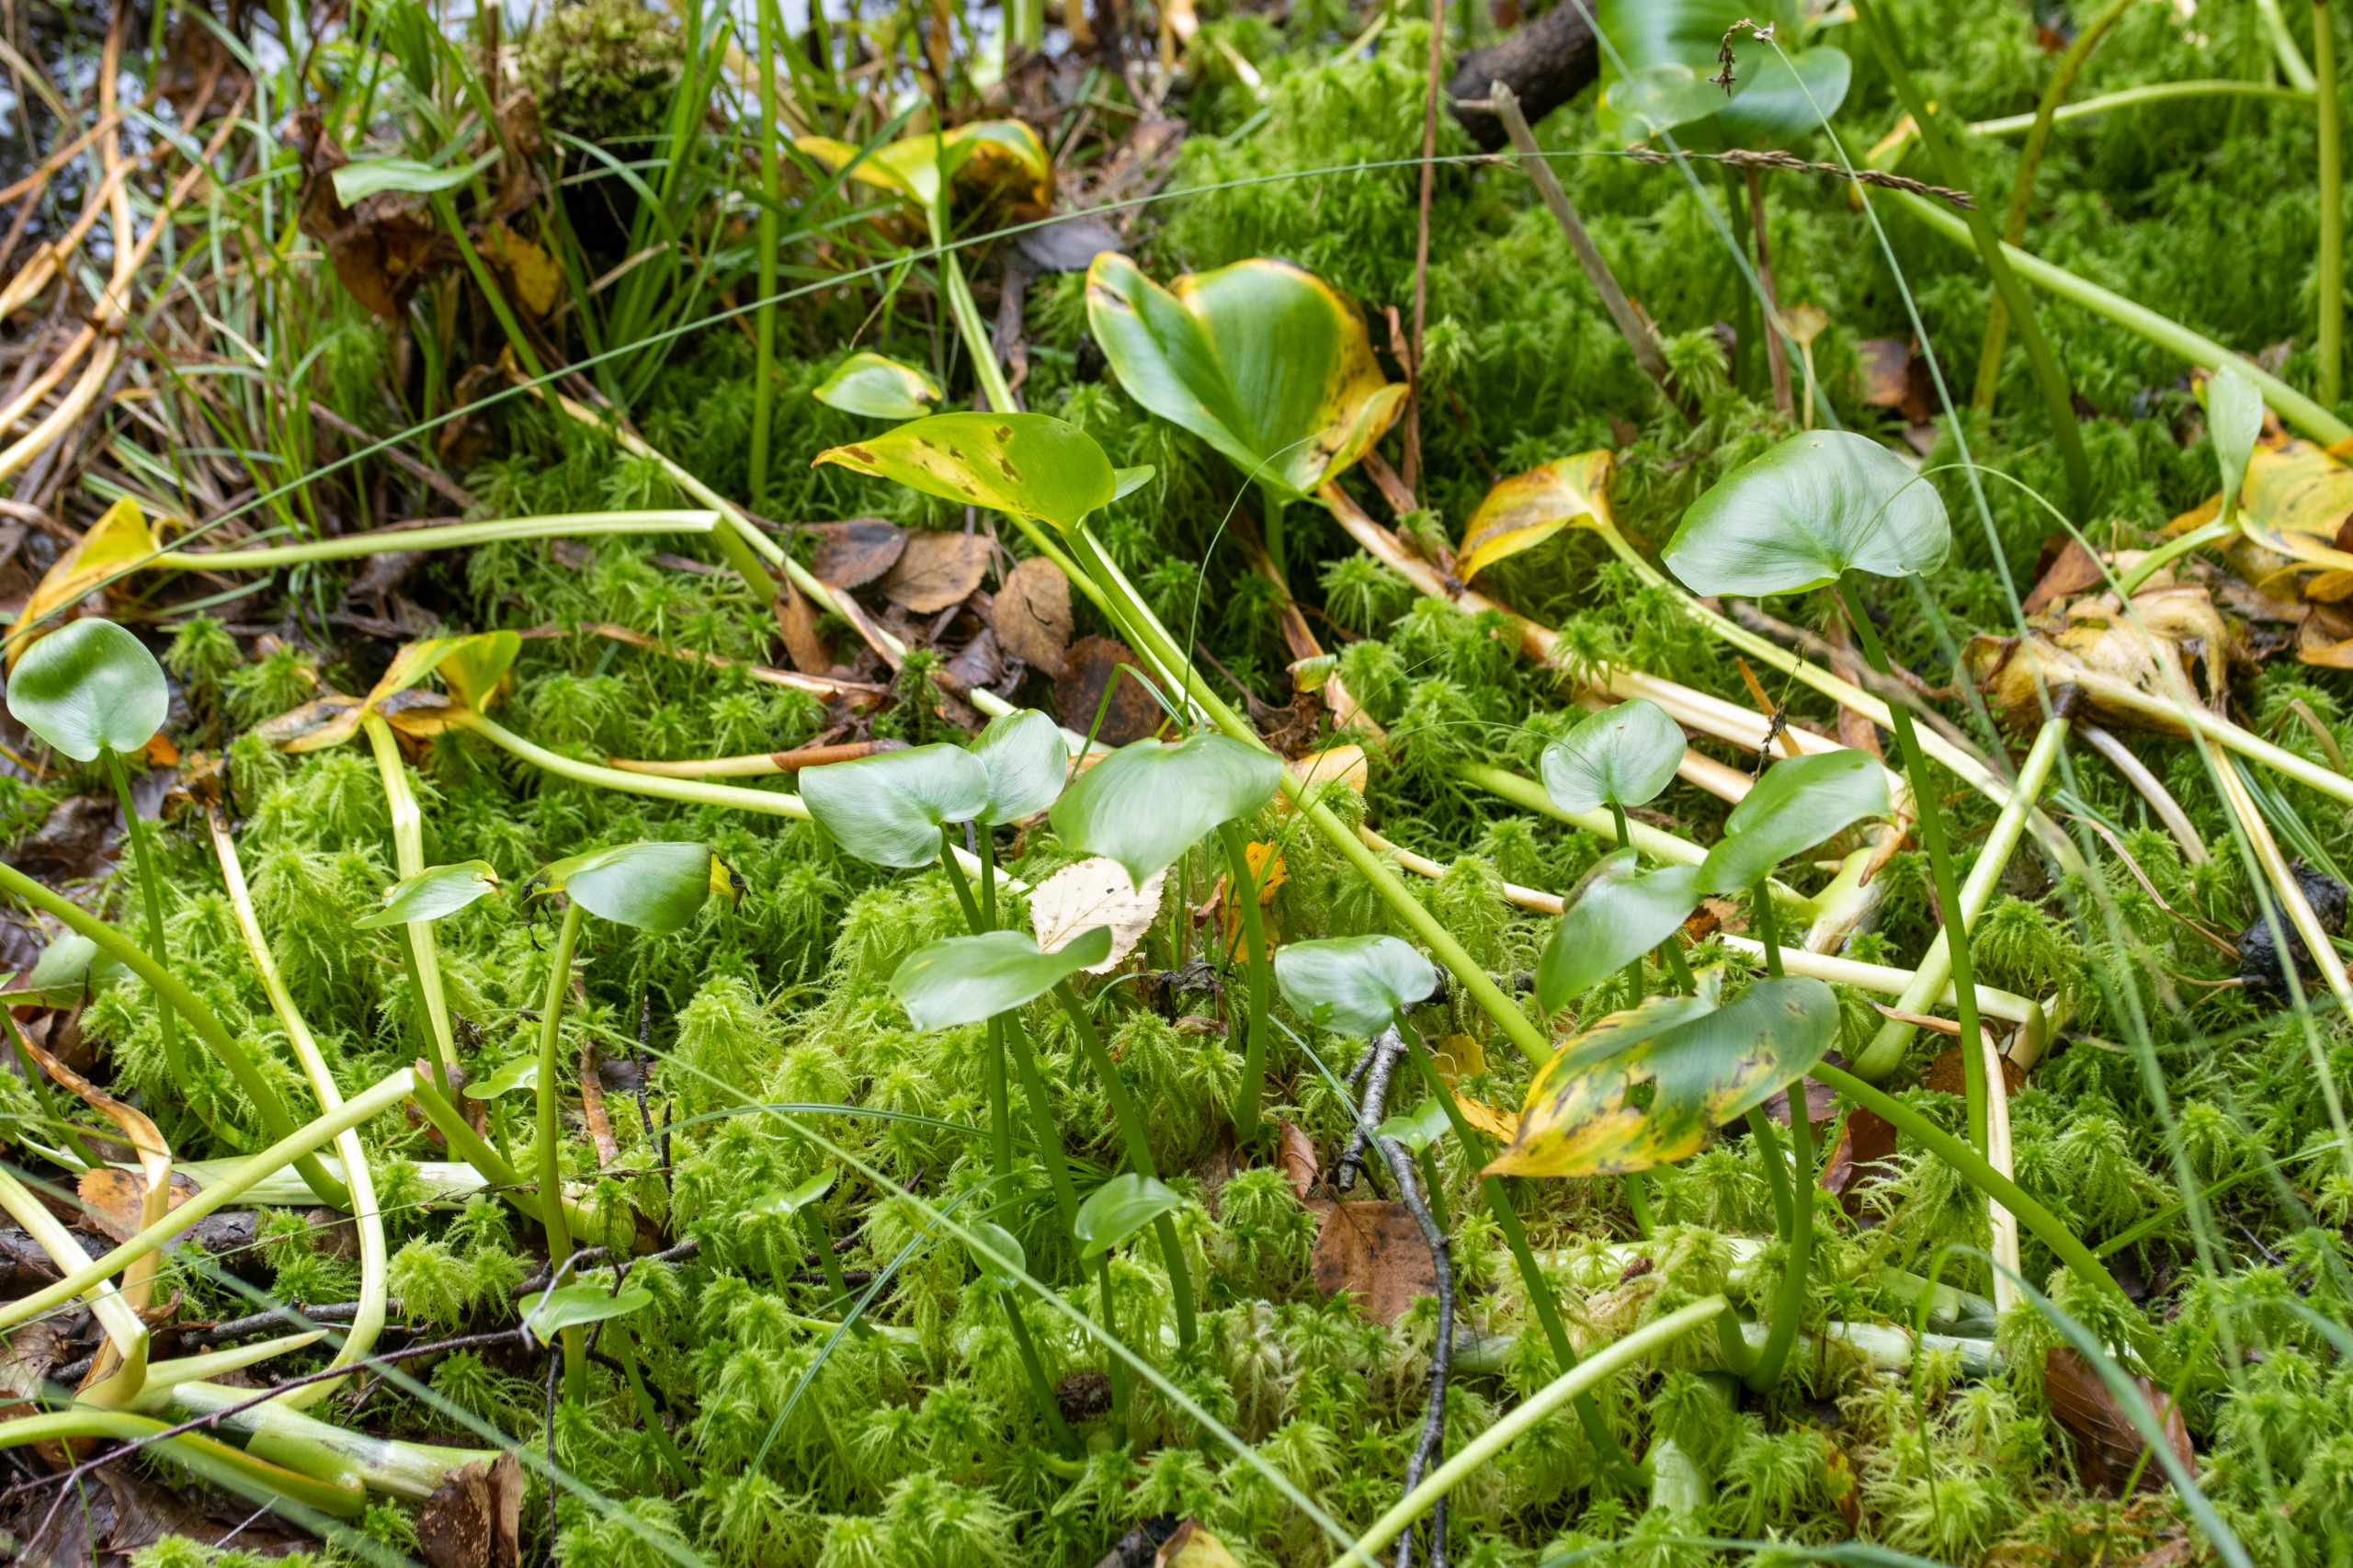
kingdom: Plantae
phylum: Tracheophyta
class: Liliopsida
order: Alismatales
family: Araceae
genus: Calla
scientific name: Calla palustris
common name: Kærmysse
